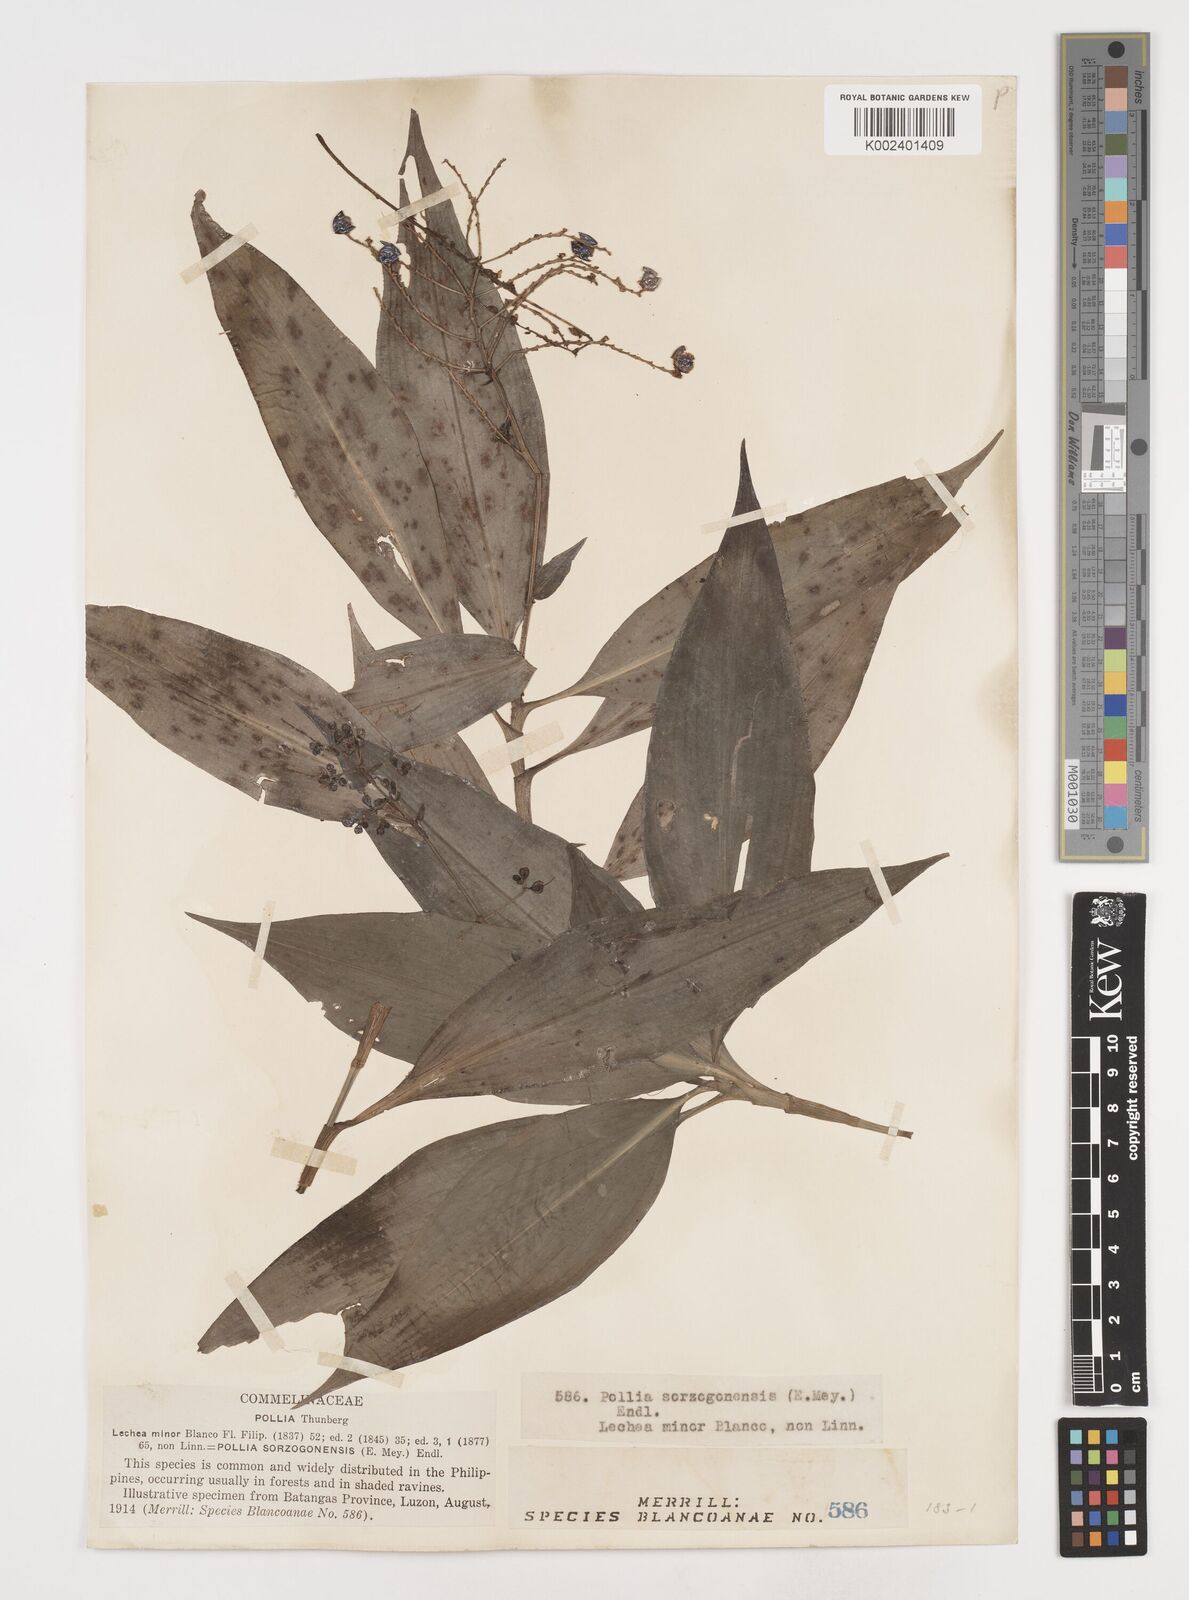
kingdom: Plantae
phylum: Tracheophyta
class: Liliopsida
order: Commelinales
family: Commelinaceae
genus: Pollia
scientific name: Pollia secundiflora
